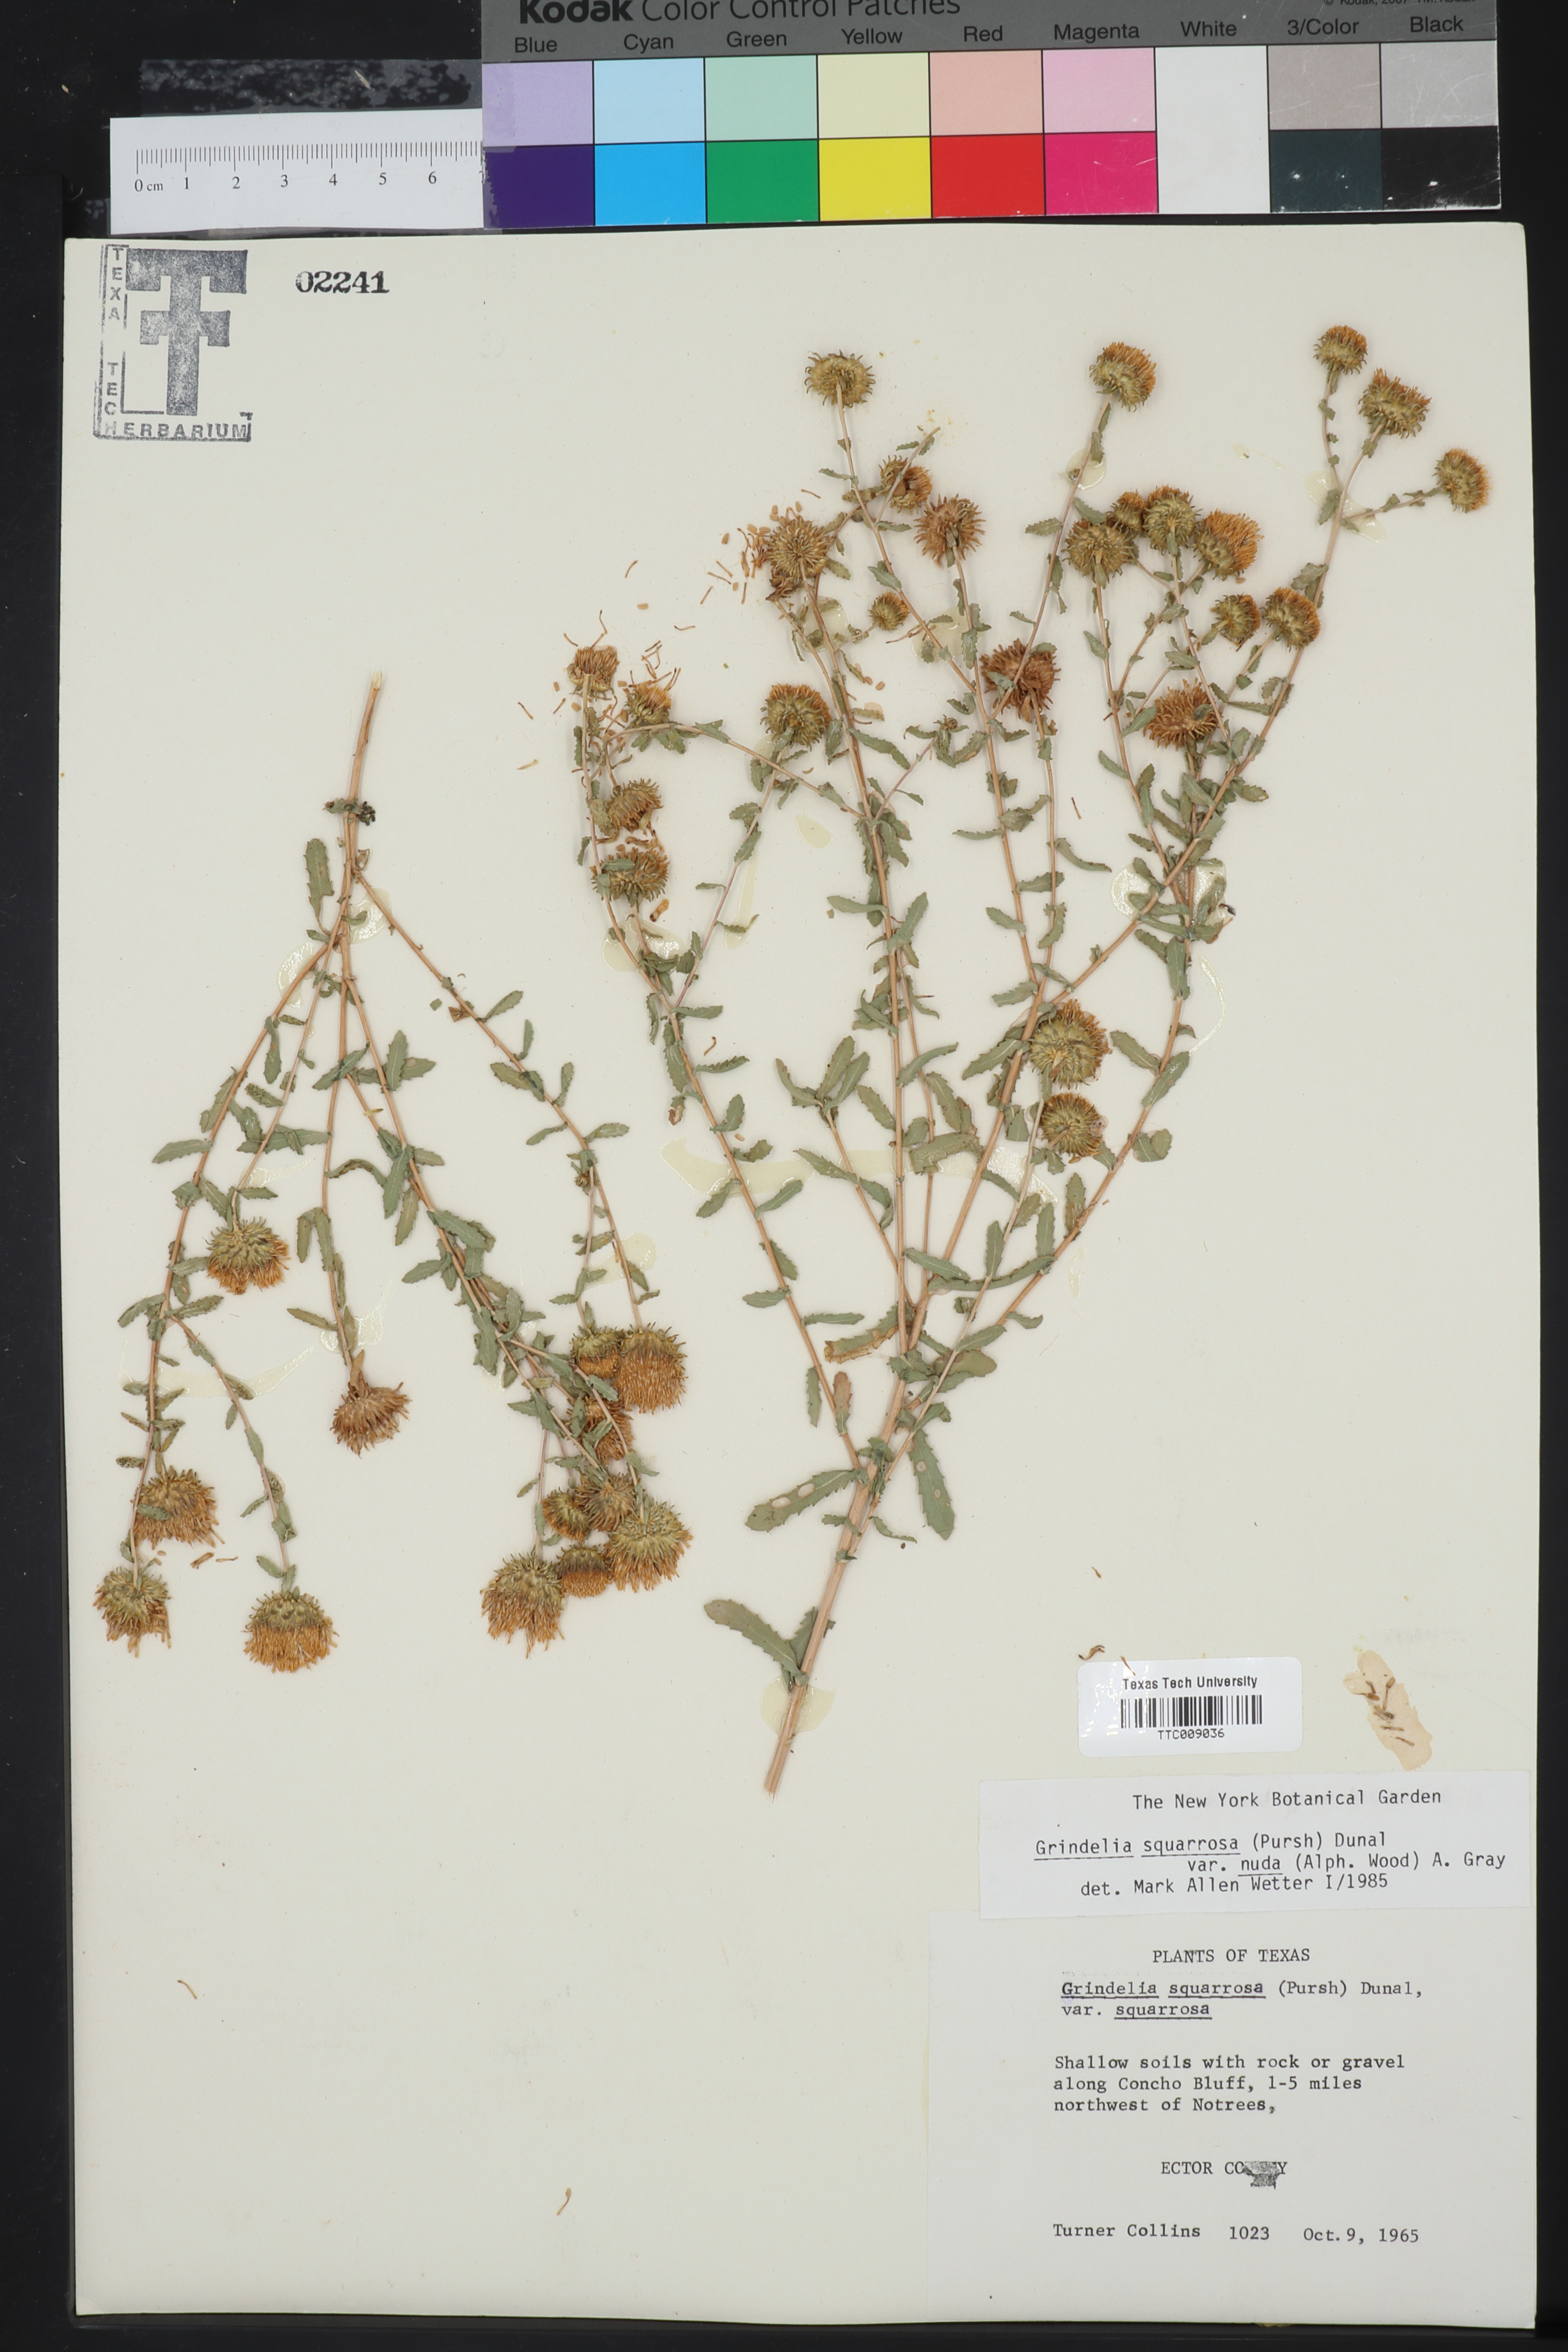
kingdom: Plantae
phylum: Tracheophyta
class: Magnoliopsida
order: Asterales
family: Asteraceae
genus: Grindelia
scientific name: Grindelia nuda
